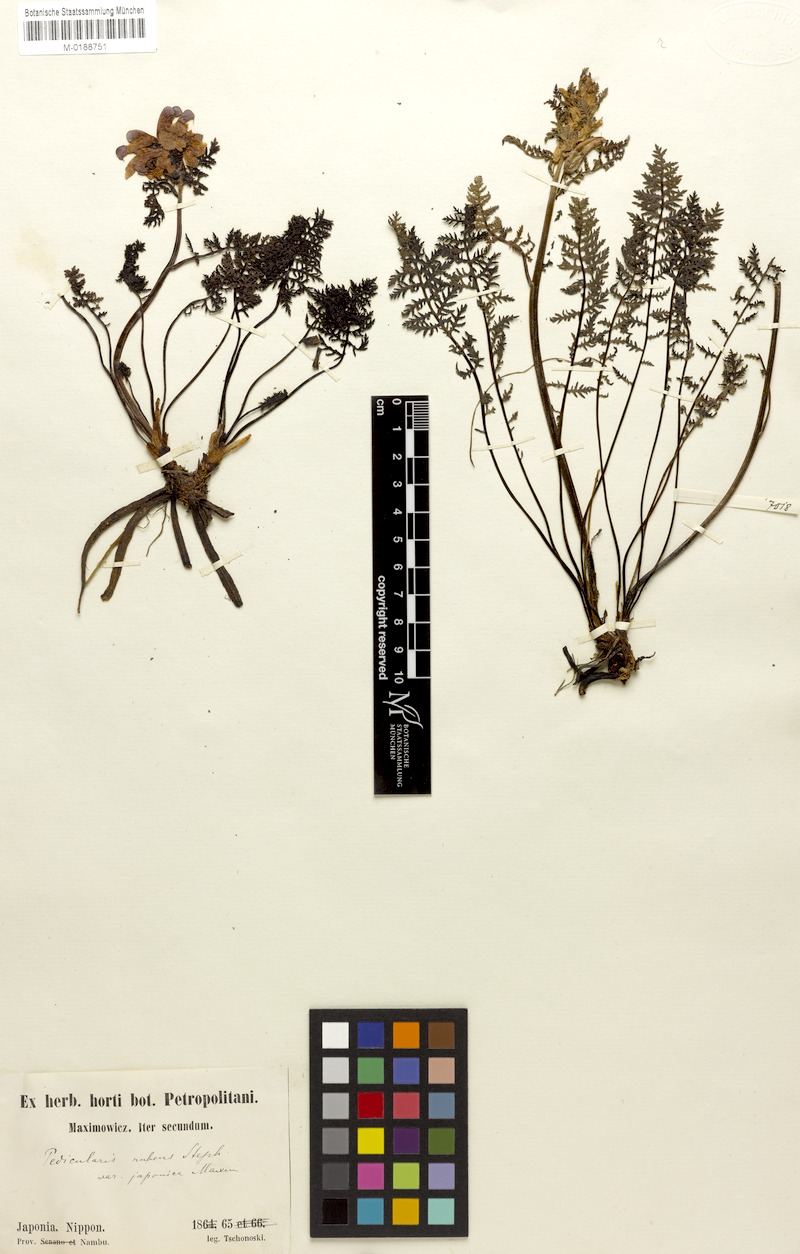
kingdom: Plantae
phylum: Tracheophyta
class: Magnoliopsida
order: Lamiales
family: Orobanchaceae
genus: Pedicularis
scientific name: Pedicularis apodochila
